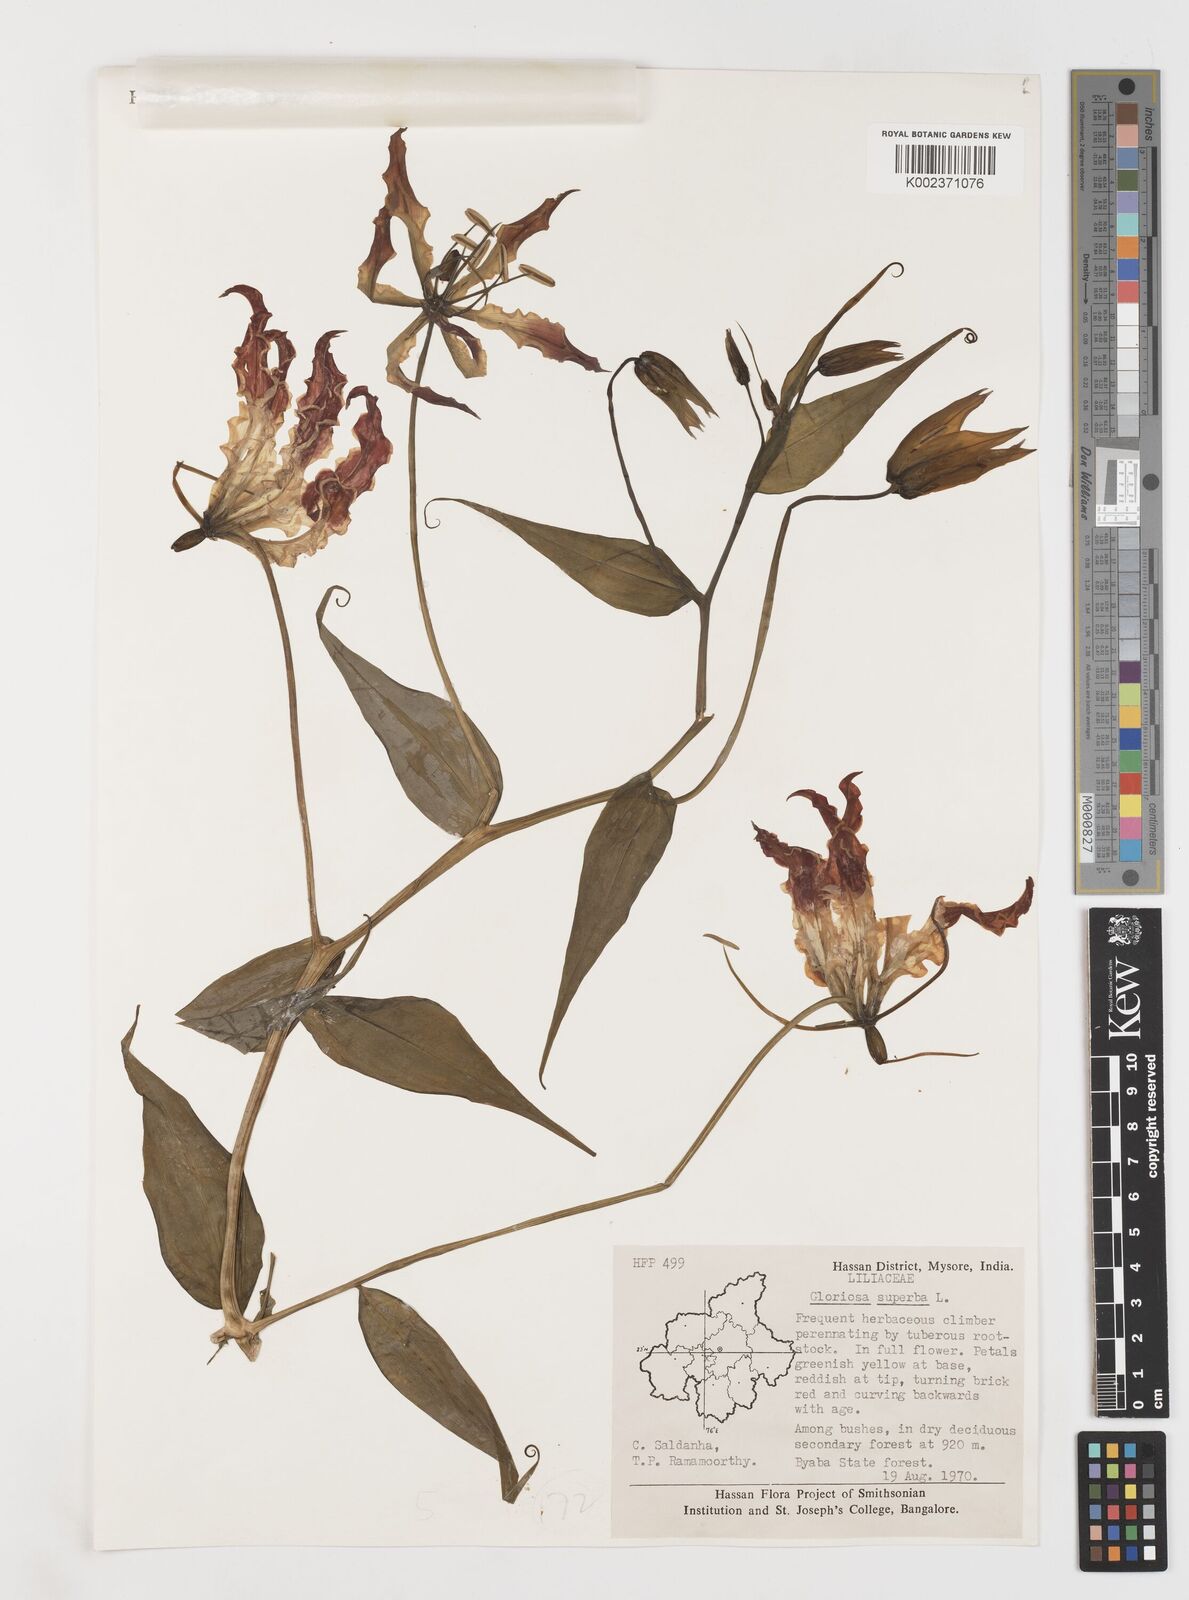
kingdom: Plantae
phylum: Tracheophyta
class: Liliopsida
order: Liliales
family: Colchicaceae
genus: Gloriosa
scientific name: Gloriosa superba
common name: Flame lily
